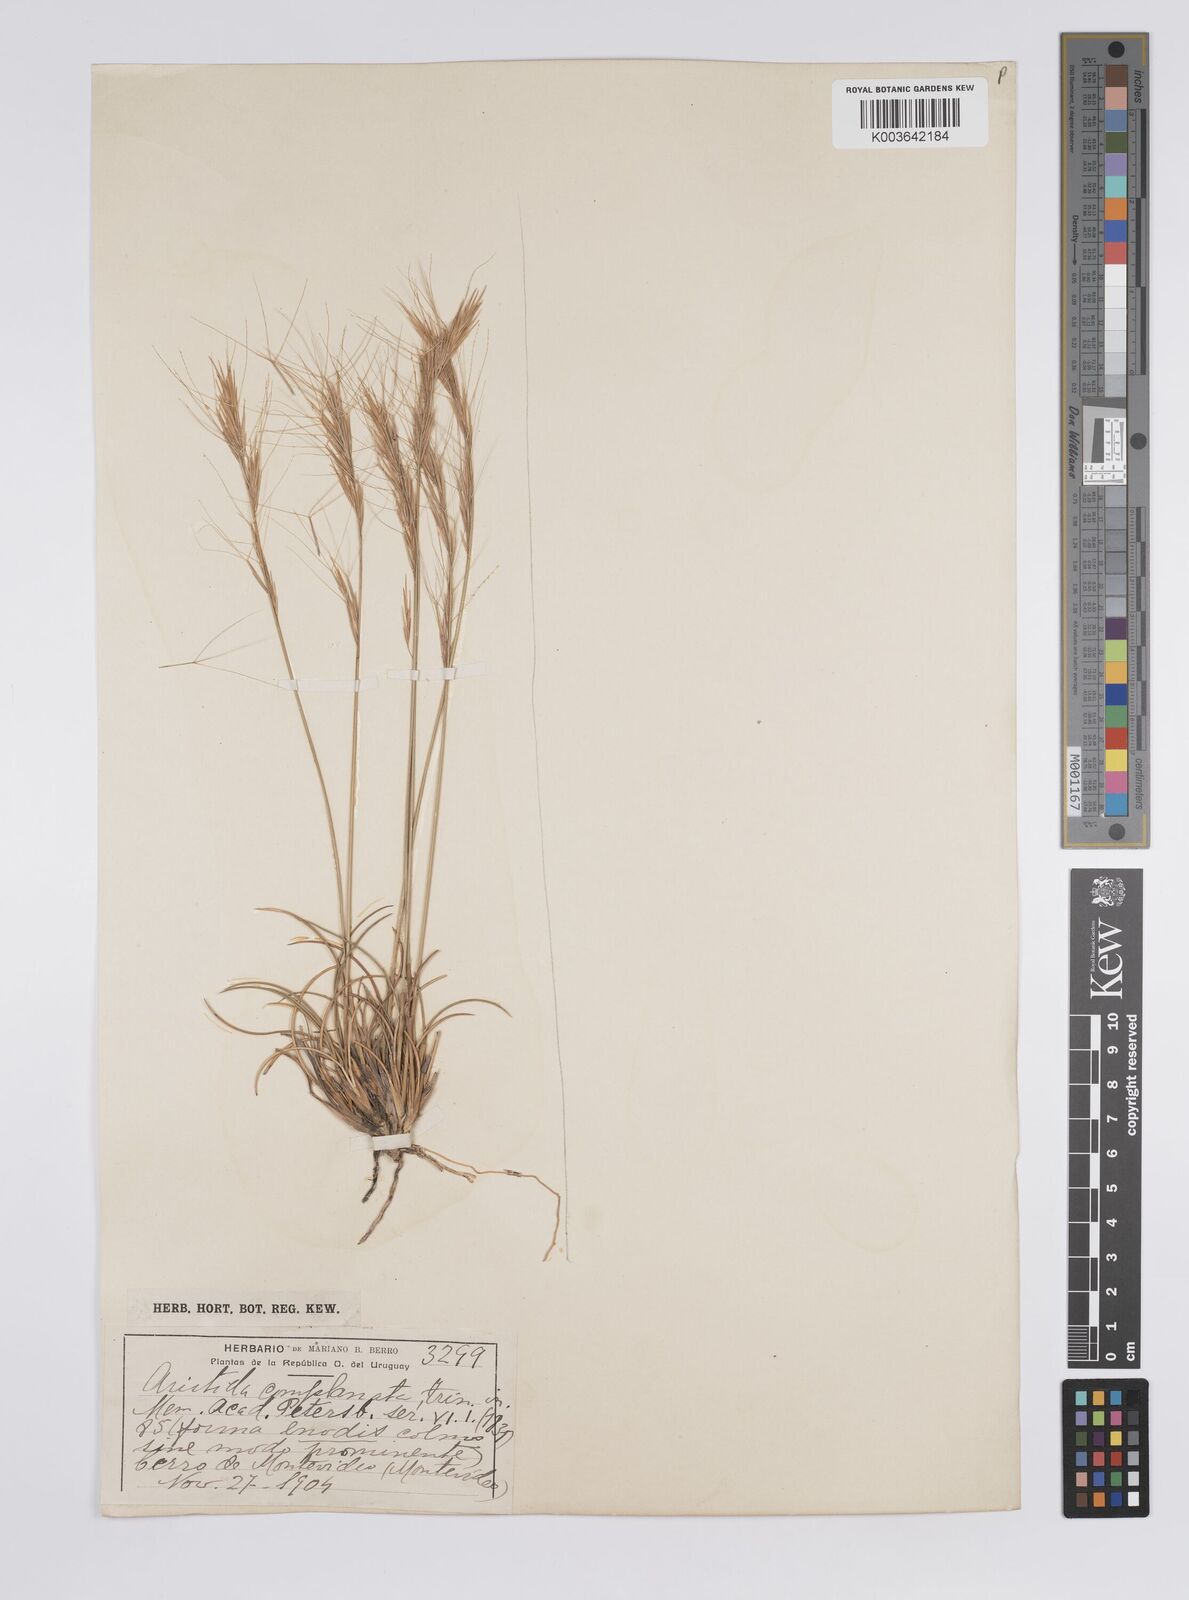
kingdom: Plantae
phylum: Tracheophyta
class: Liliopsida
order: Poales
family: Poaceae
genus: Aristida
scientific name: Aristida
